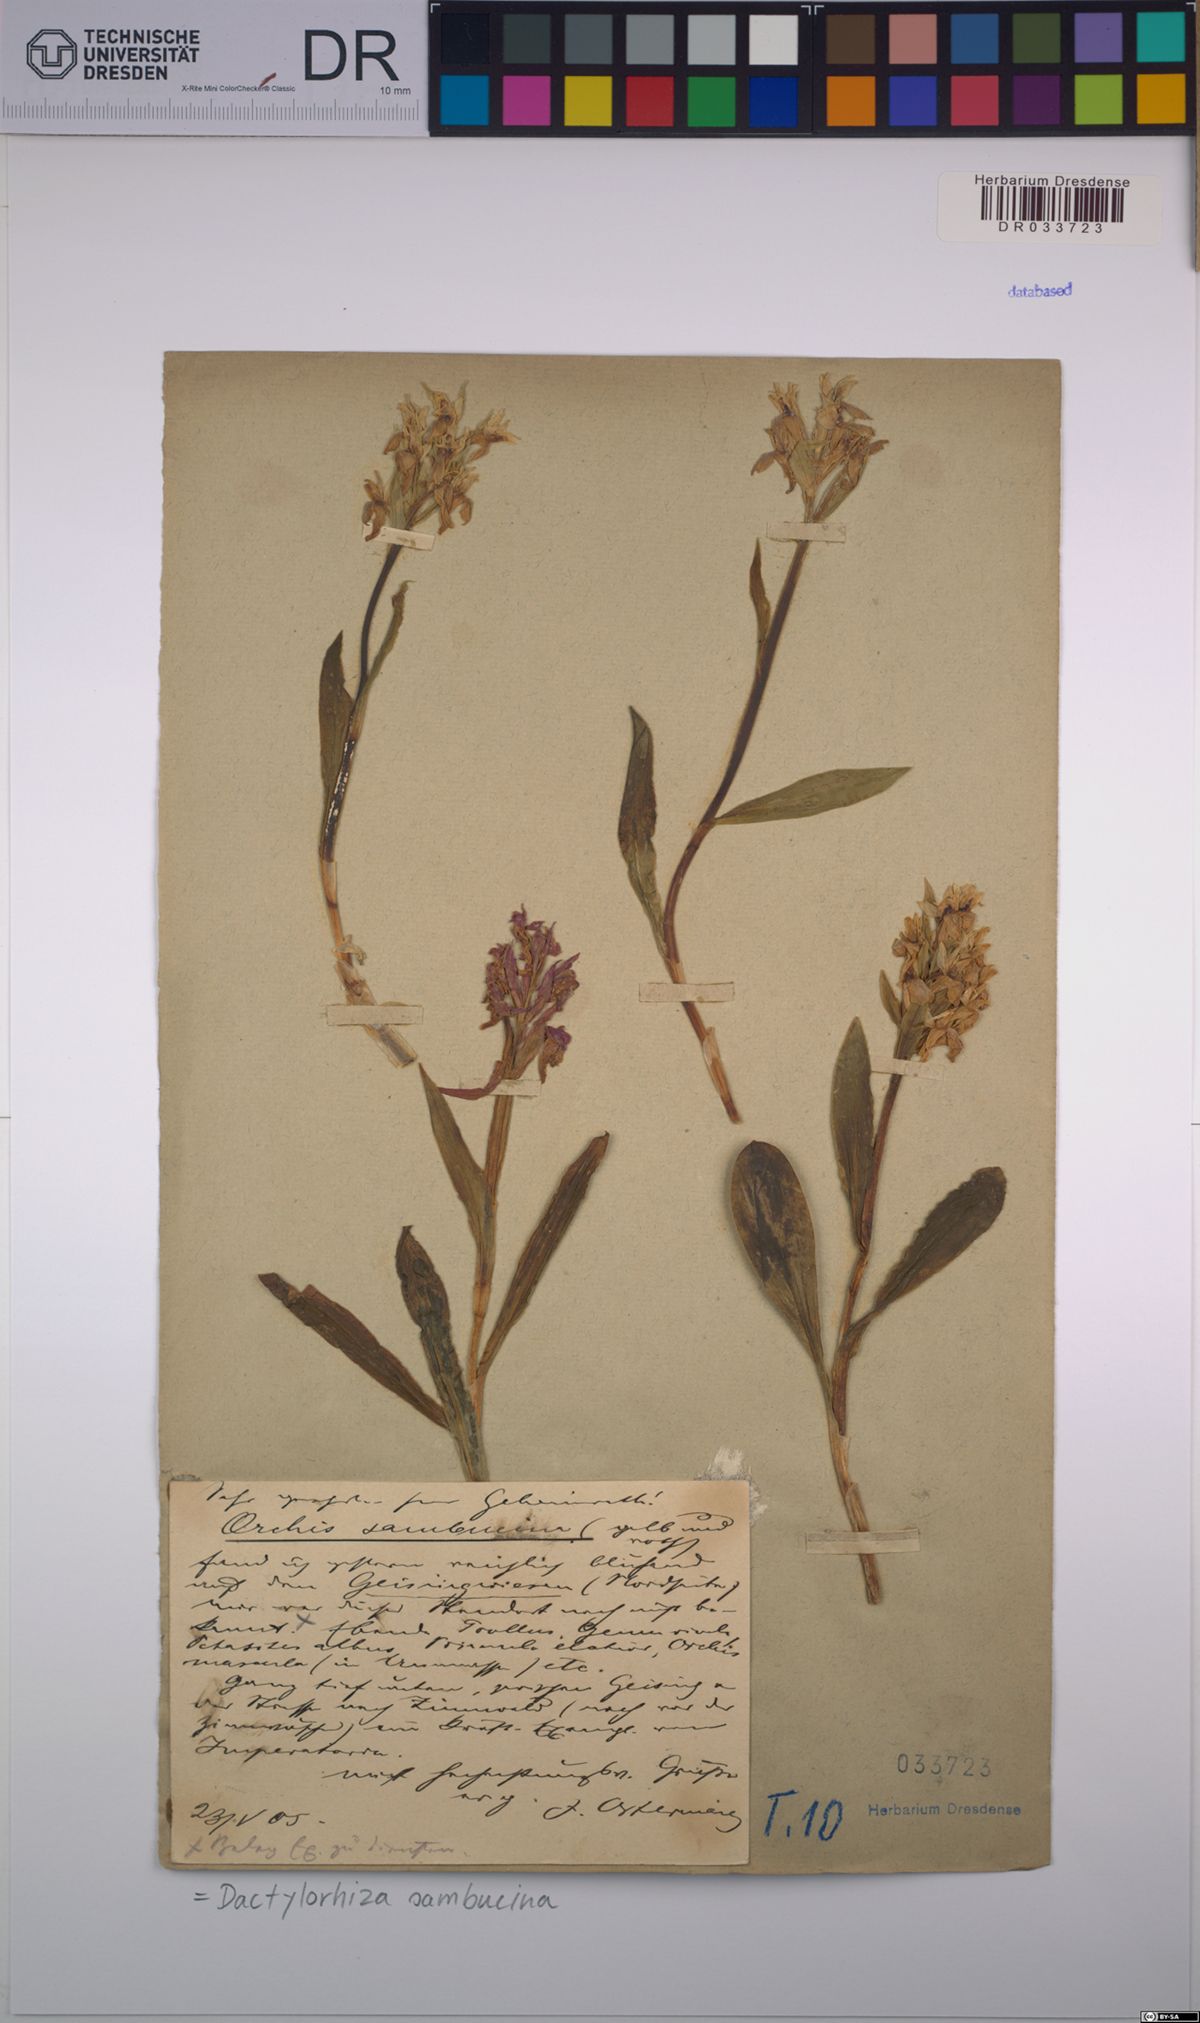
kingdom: Plantae
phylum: Tracheophyta
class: Liliopsida
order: Asparagales
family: Orchidaceae
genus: Dactylorhiza
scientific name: Dactylorhiza sambucina
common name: Elder-flowered orchid
